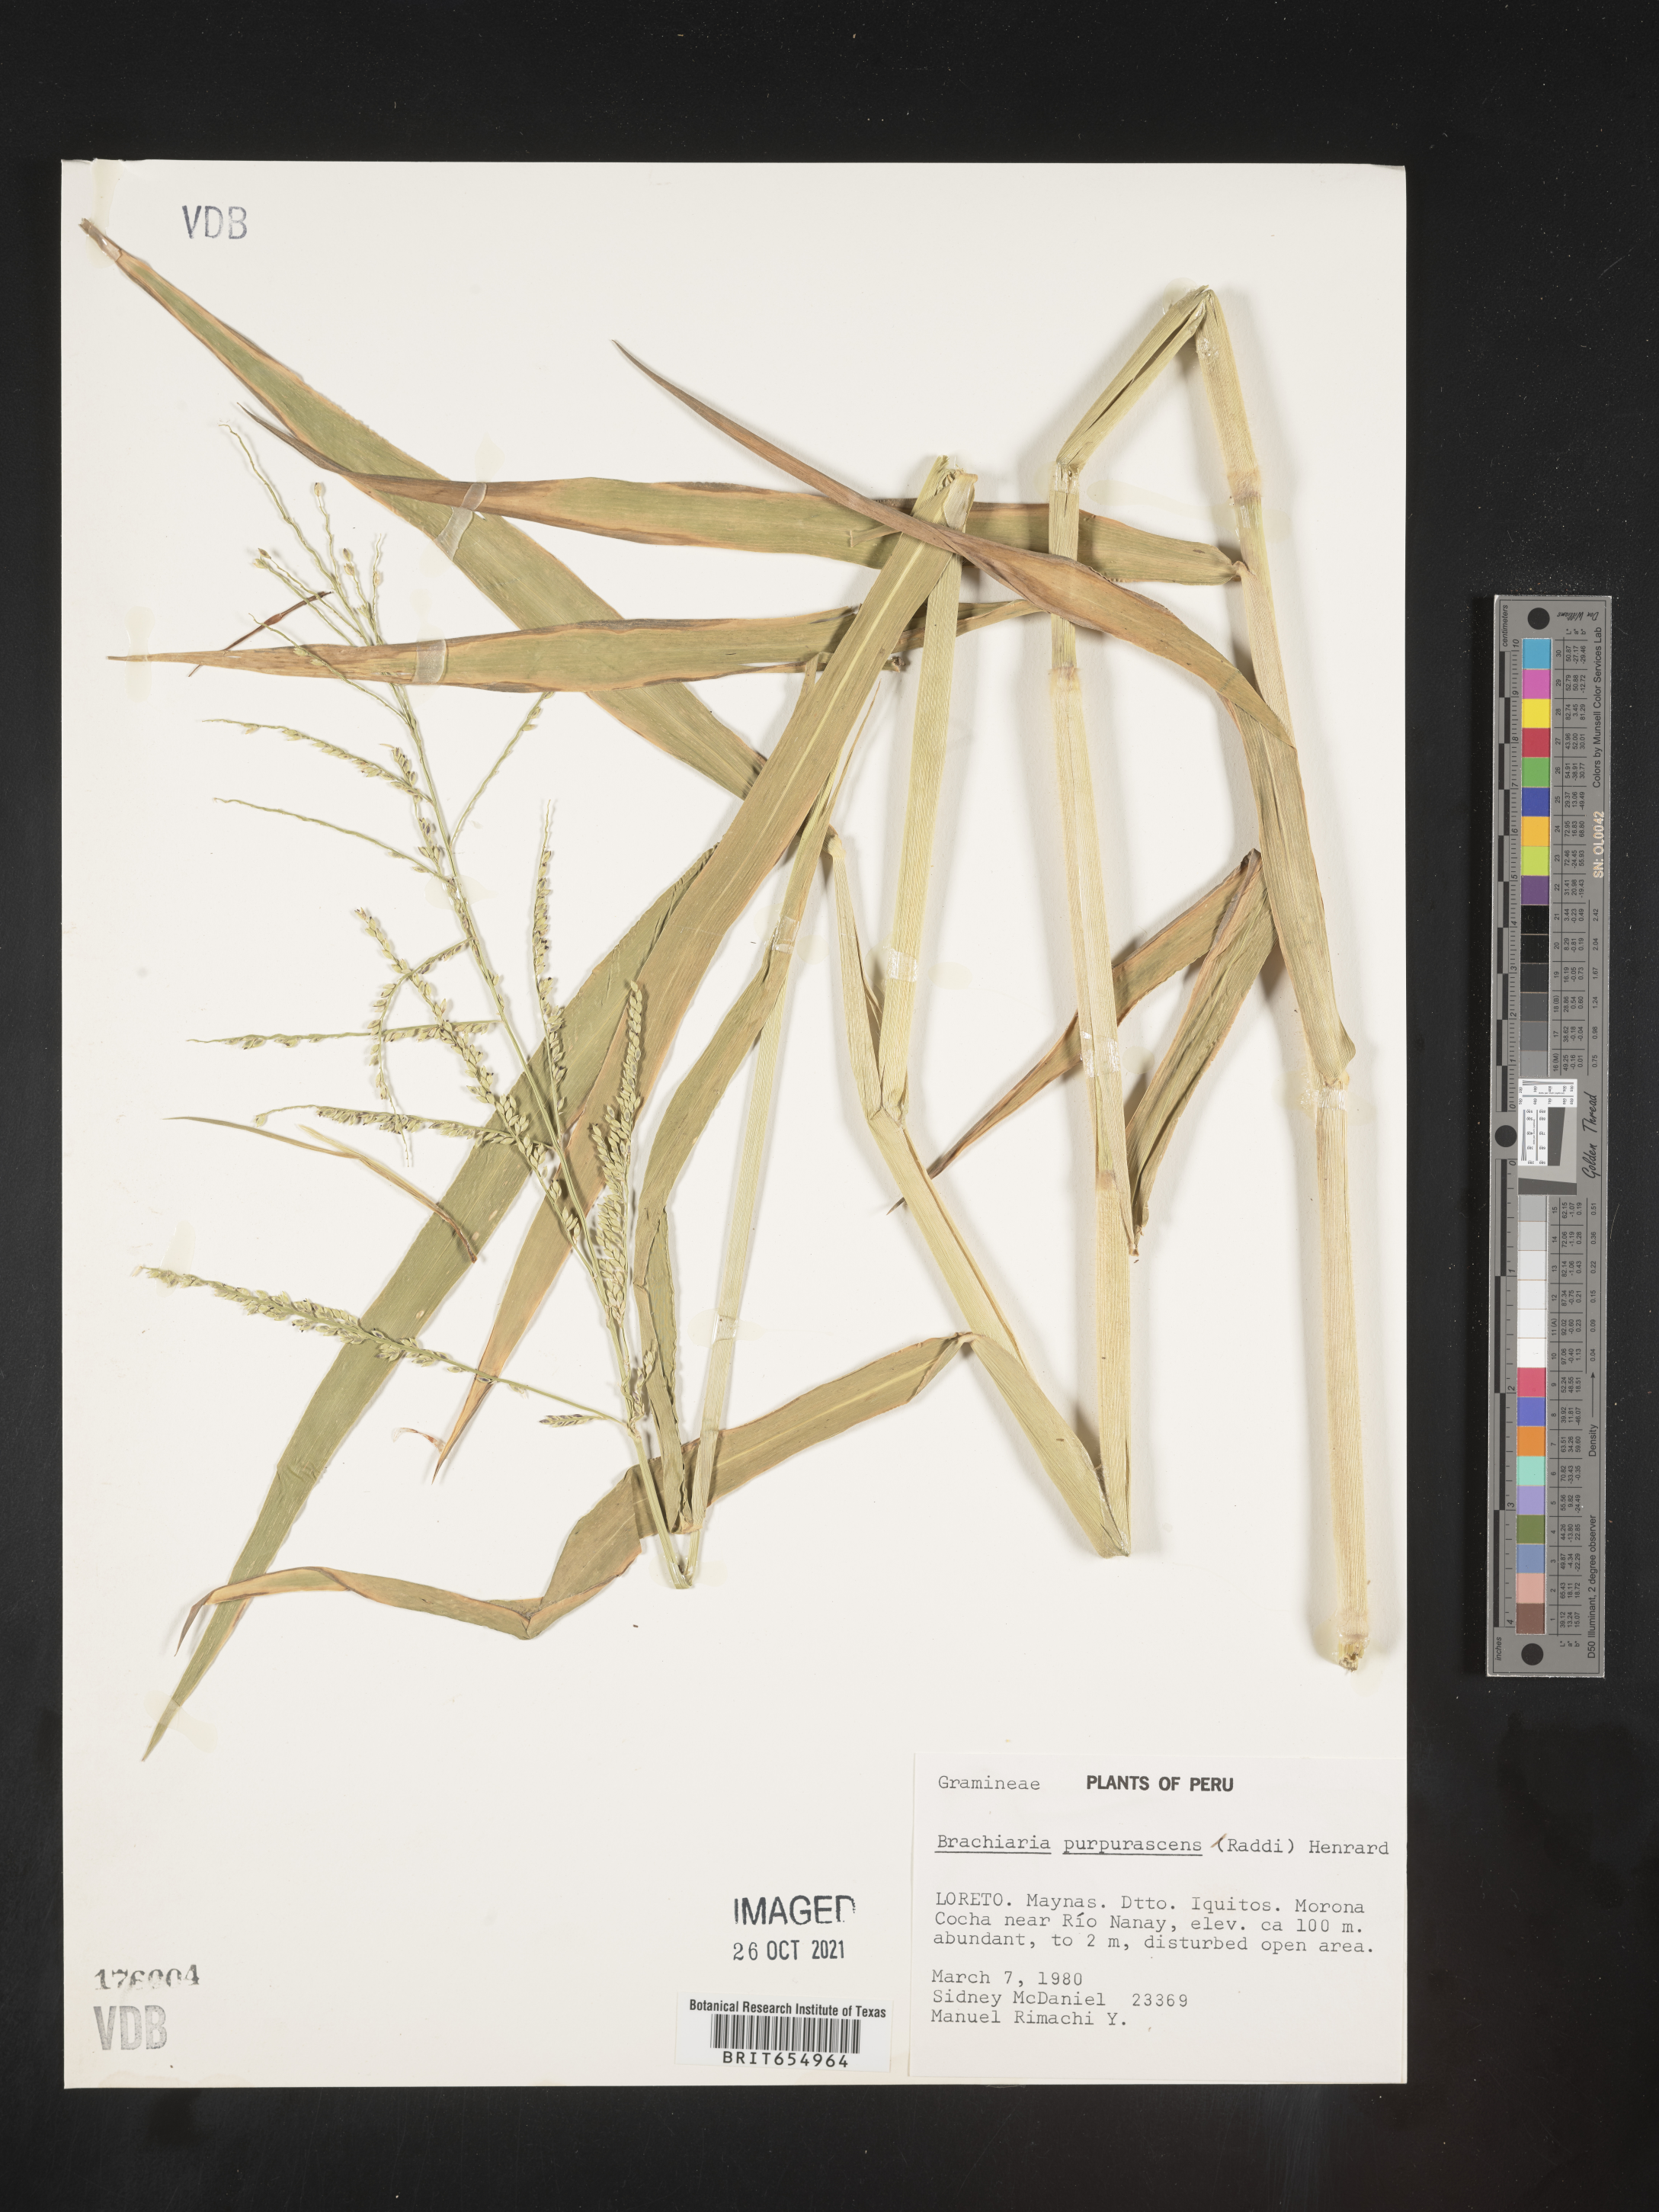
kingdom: Plantae
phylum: Tracheophyta
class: Liliopsida
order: Poales
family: Poaceae
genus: Brachiaria
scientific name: Brachiaria
